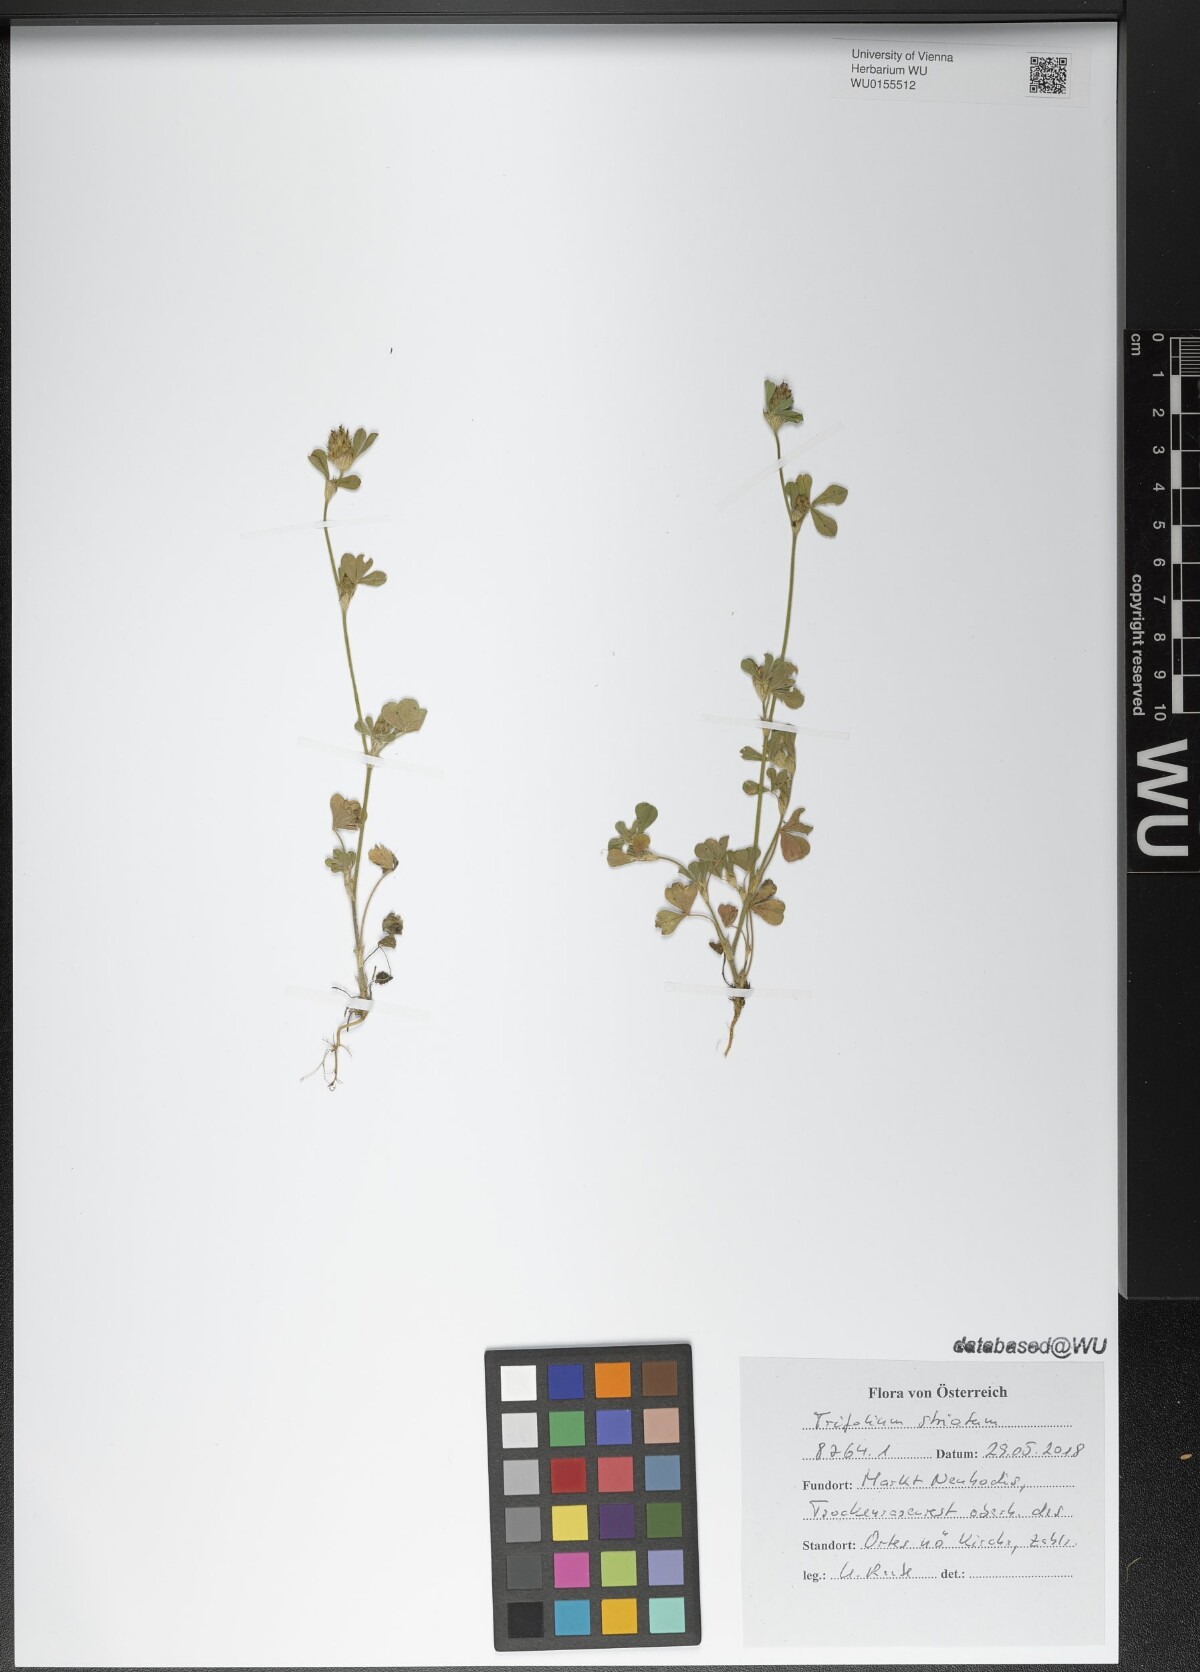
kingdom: Plantae
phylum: Tracheophyta
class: Magnoliopsida
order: Fabales
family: Fabaceae
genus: Trifolium
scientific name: Trifolium striatum
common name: Knotted clover
